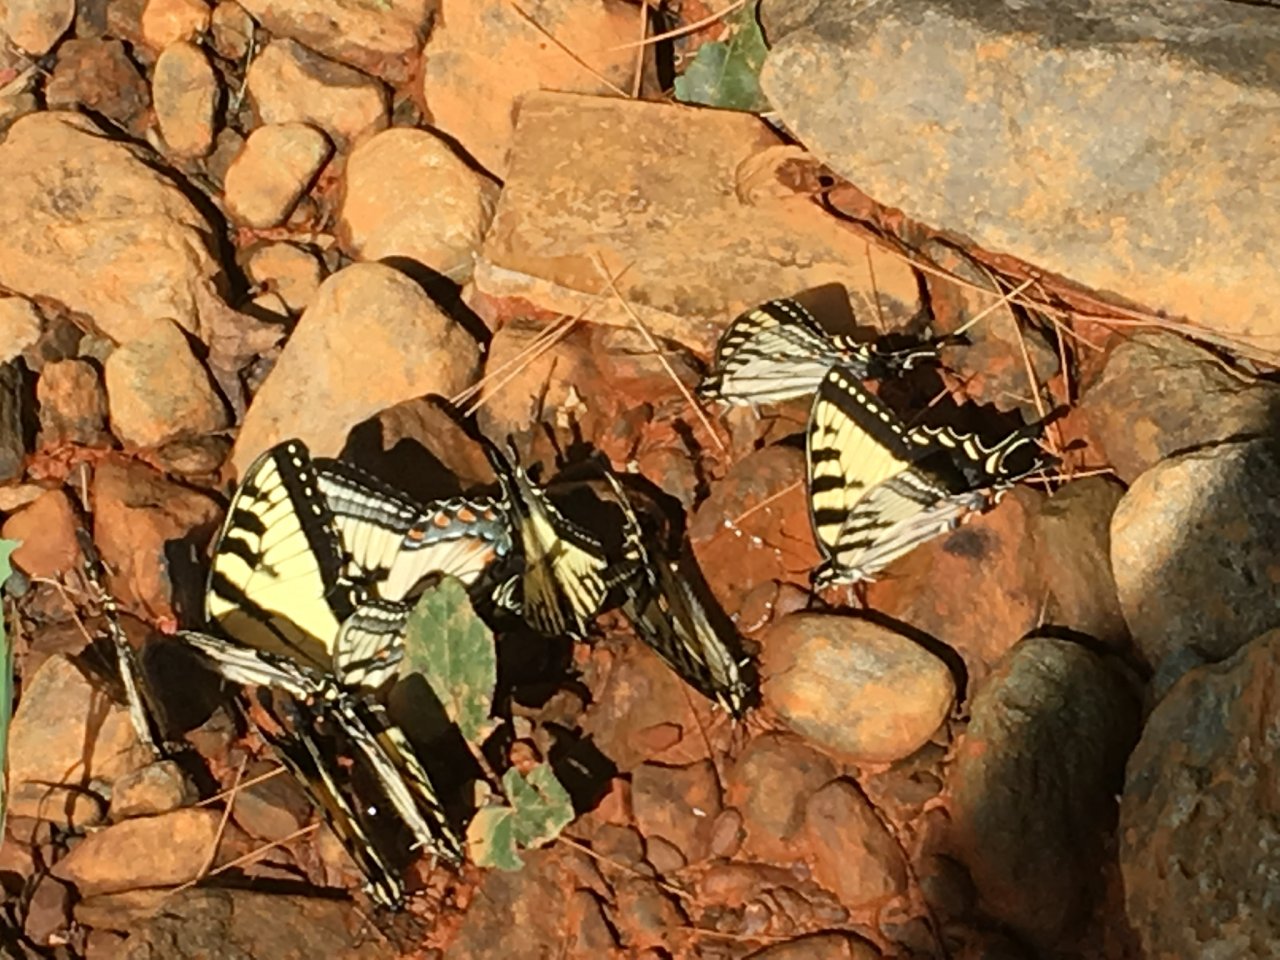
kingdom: Animalia
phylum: Arthropoda
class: Insecta
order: Lepidoptera
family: Papilionidae
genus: Pterourus
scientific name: Pterourus
